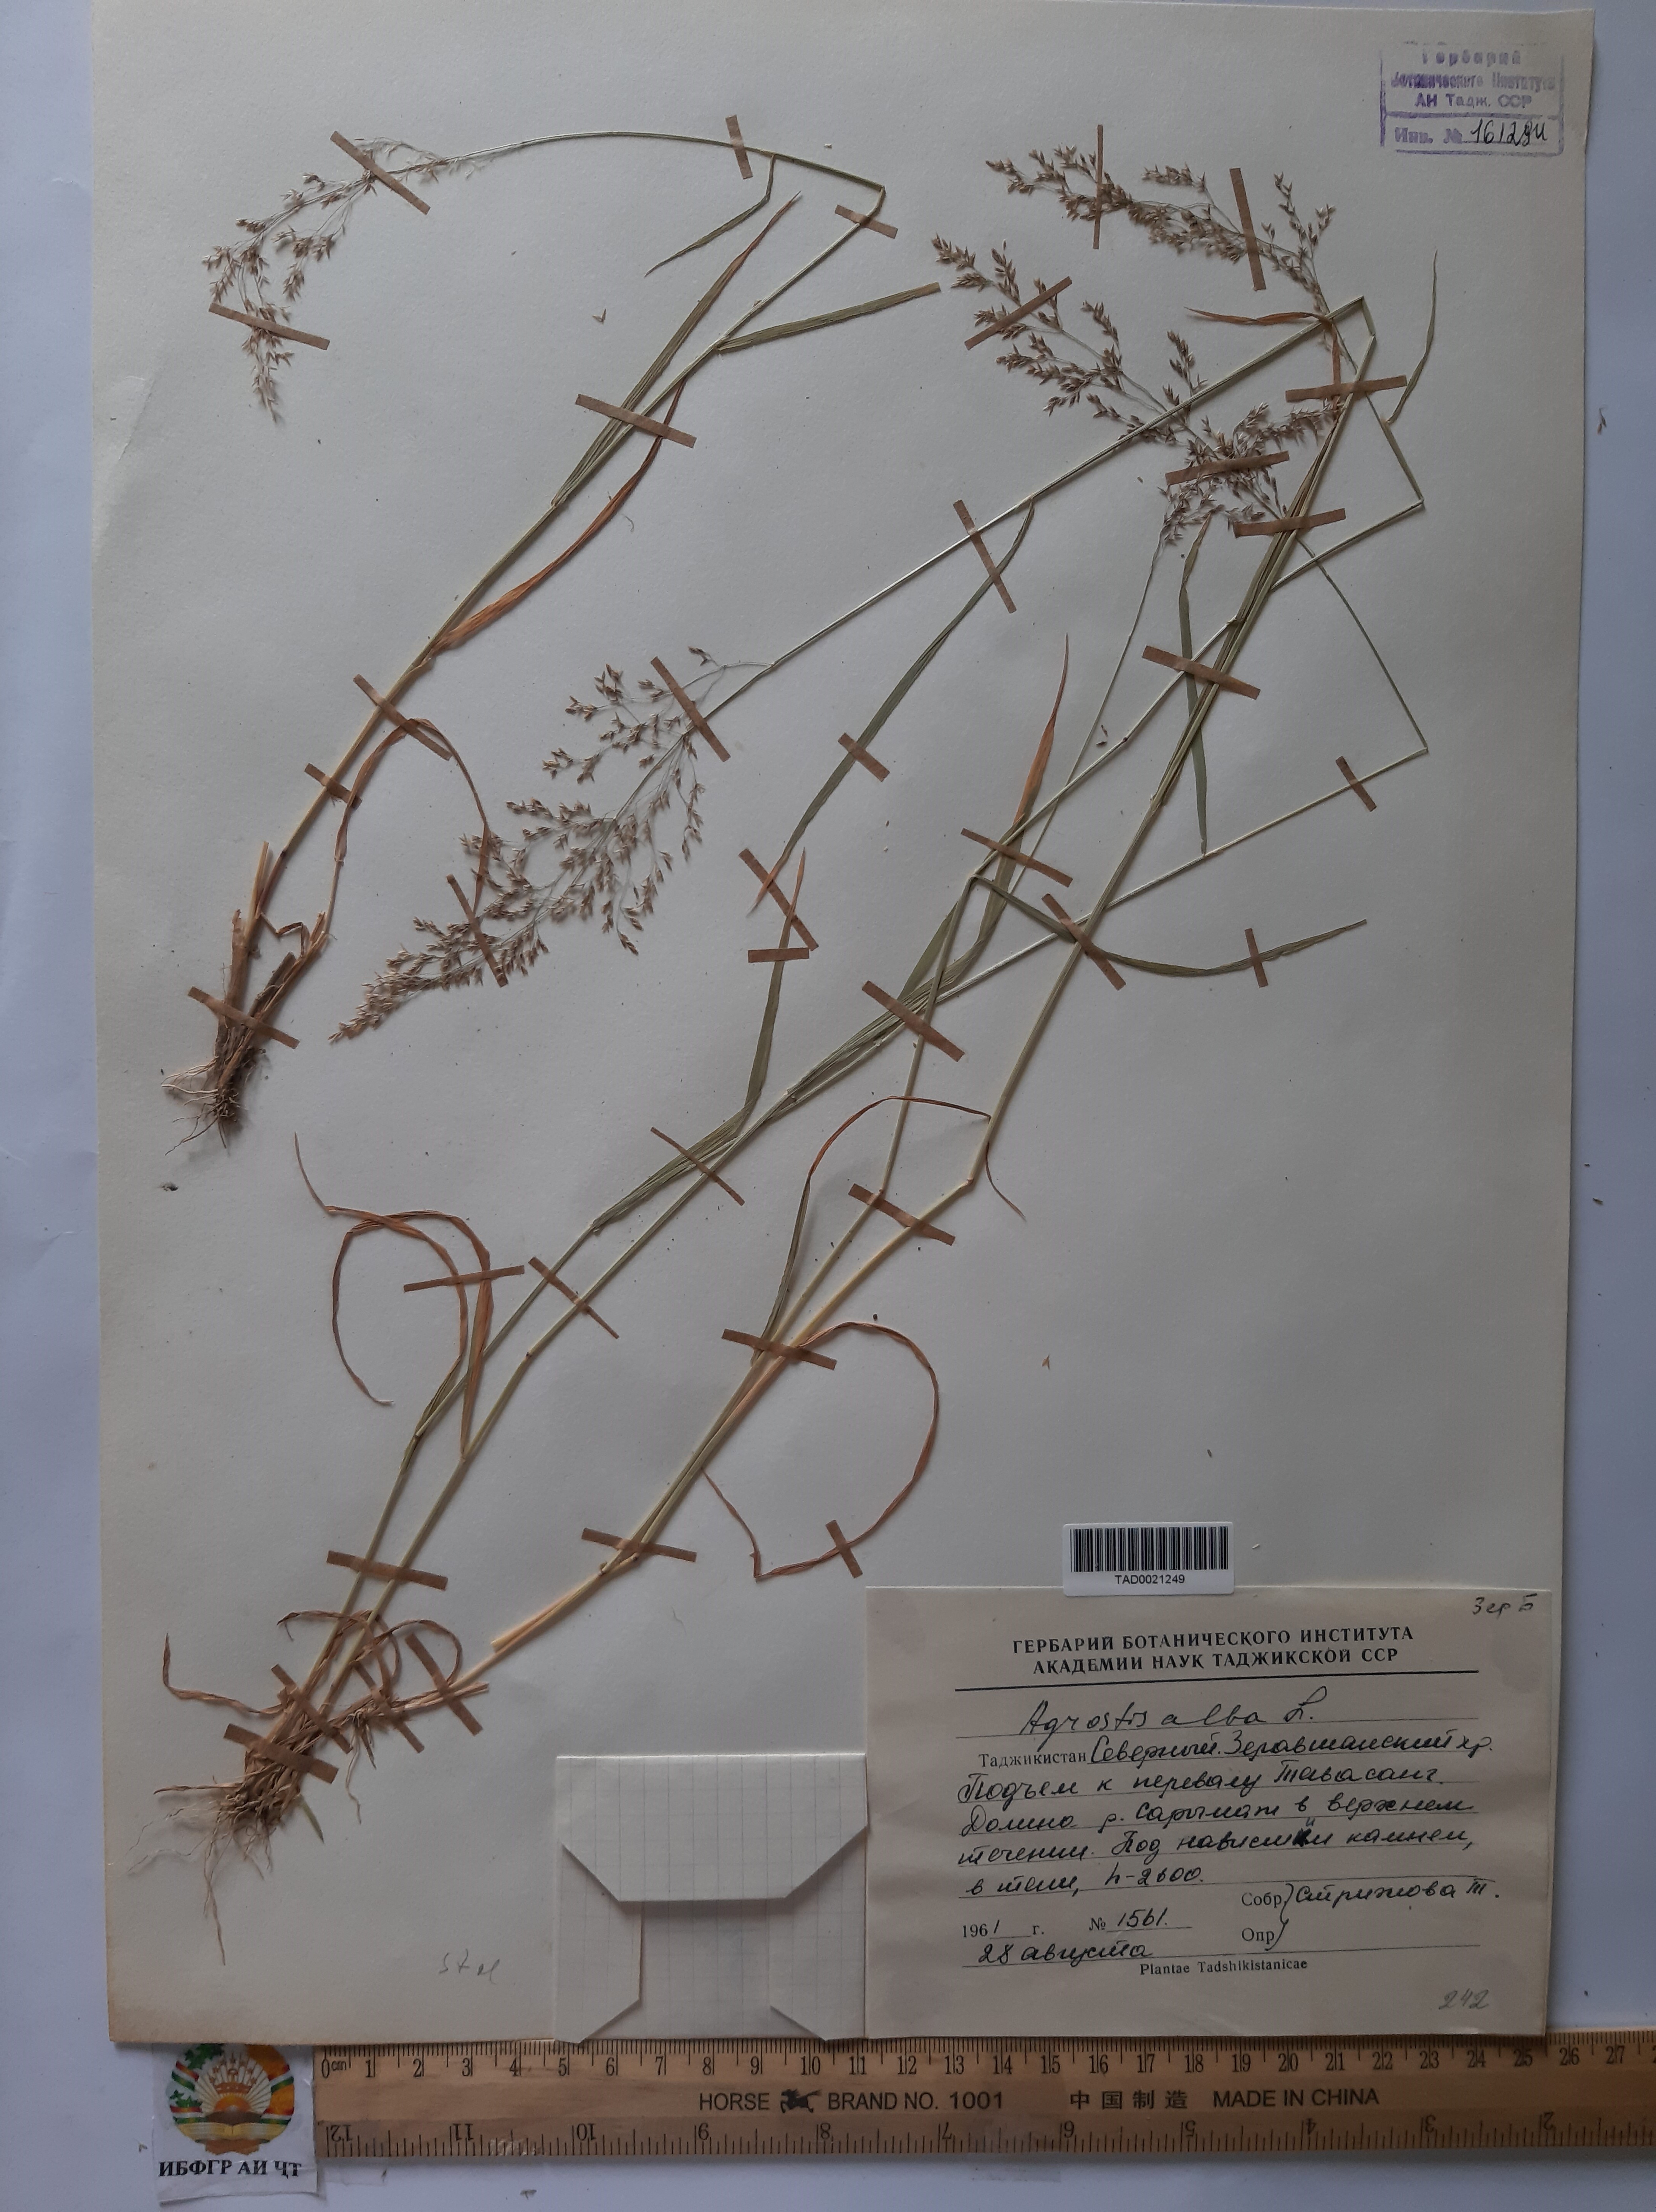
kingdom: Plantae
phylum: Tracheophyta
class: Liliopsida
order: Poales
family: Poaceae
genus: Poa
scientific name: Poa nemoralis
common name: Wood bluegrass
